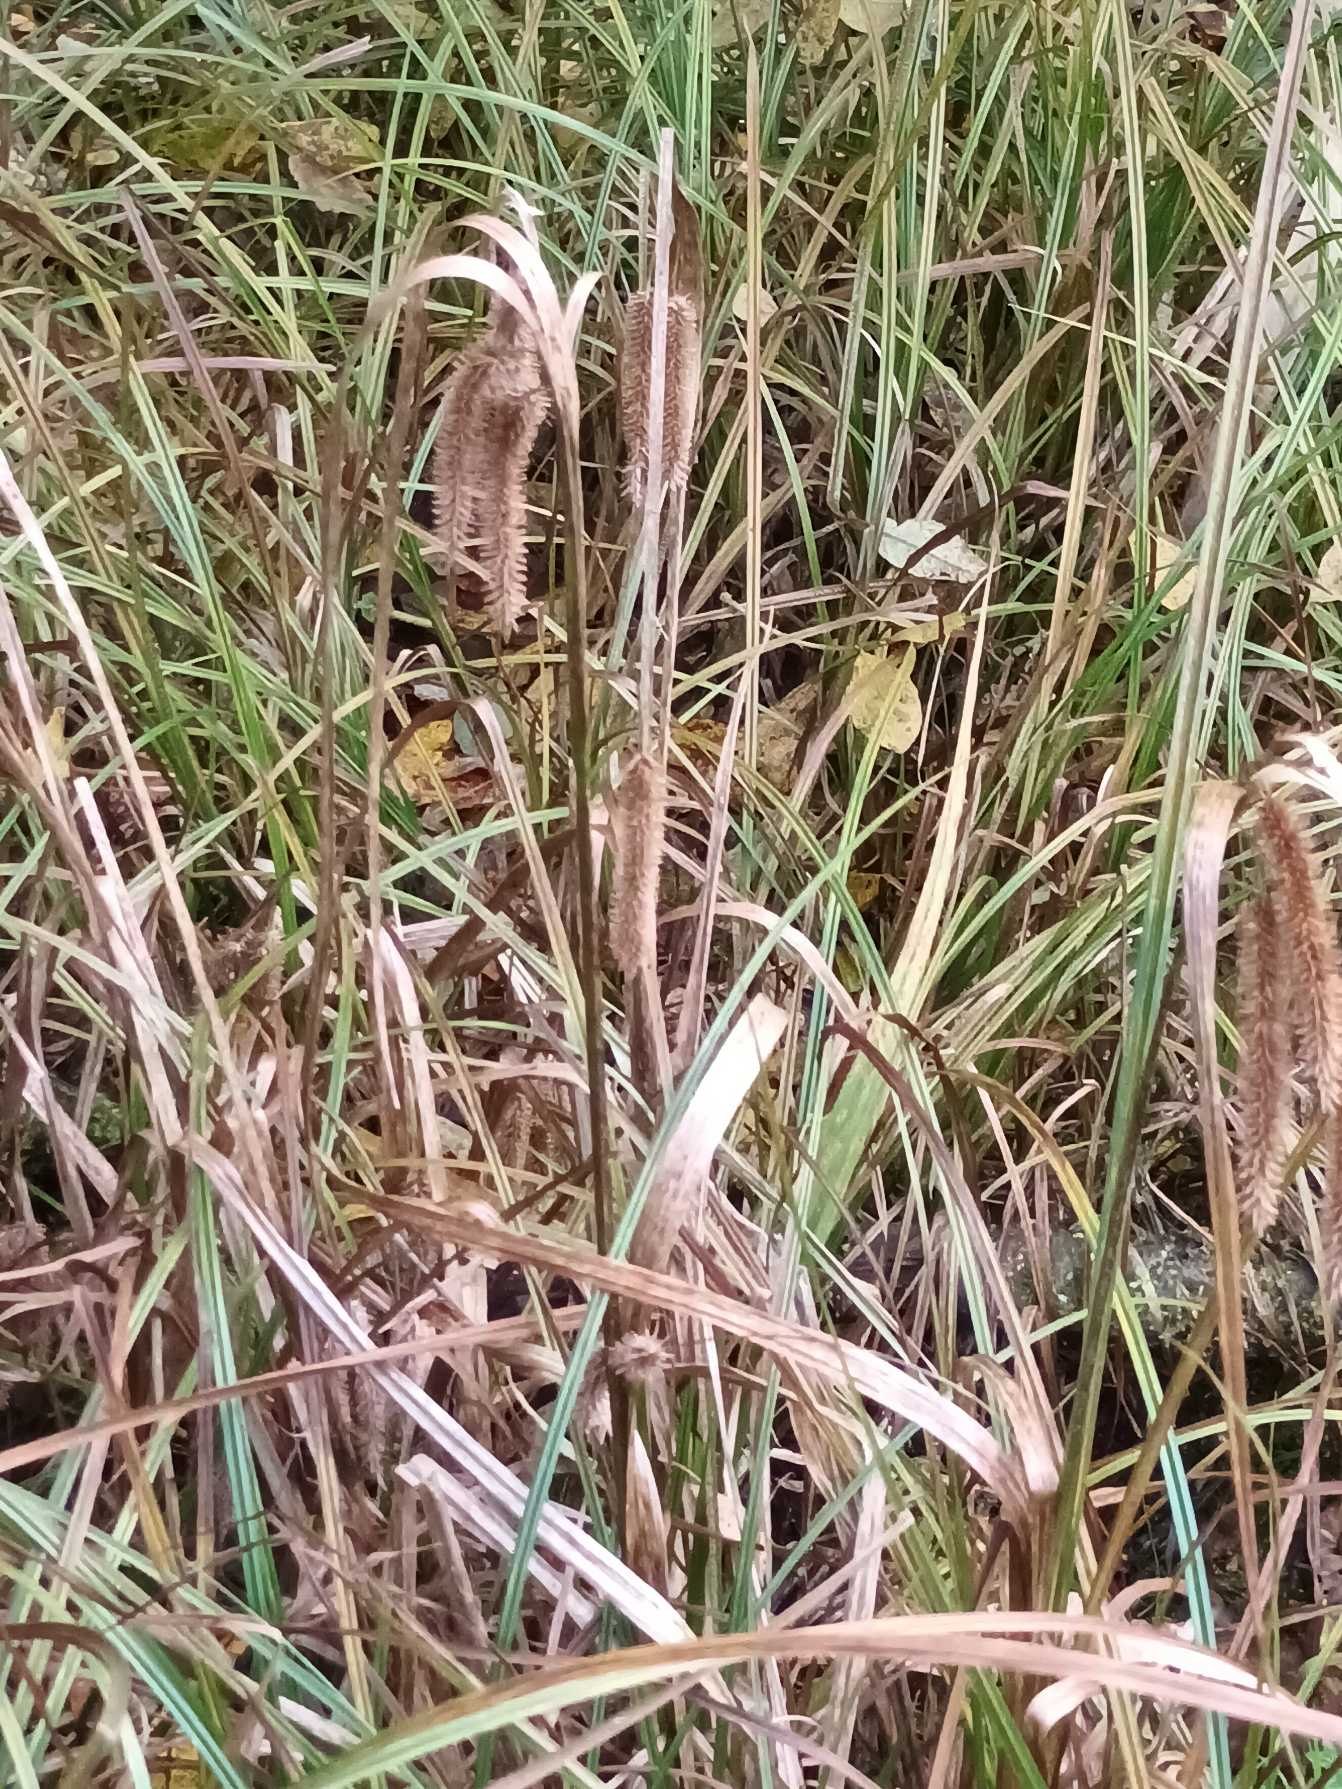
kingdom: Plantae
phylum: Tracheophyta
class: Liliopsida
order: Poales
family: Cyperaceae
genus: Carex
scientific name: Carex pseudocyperus
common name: Knippe-star
